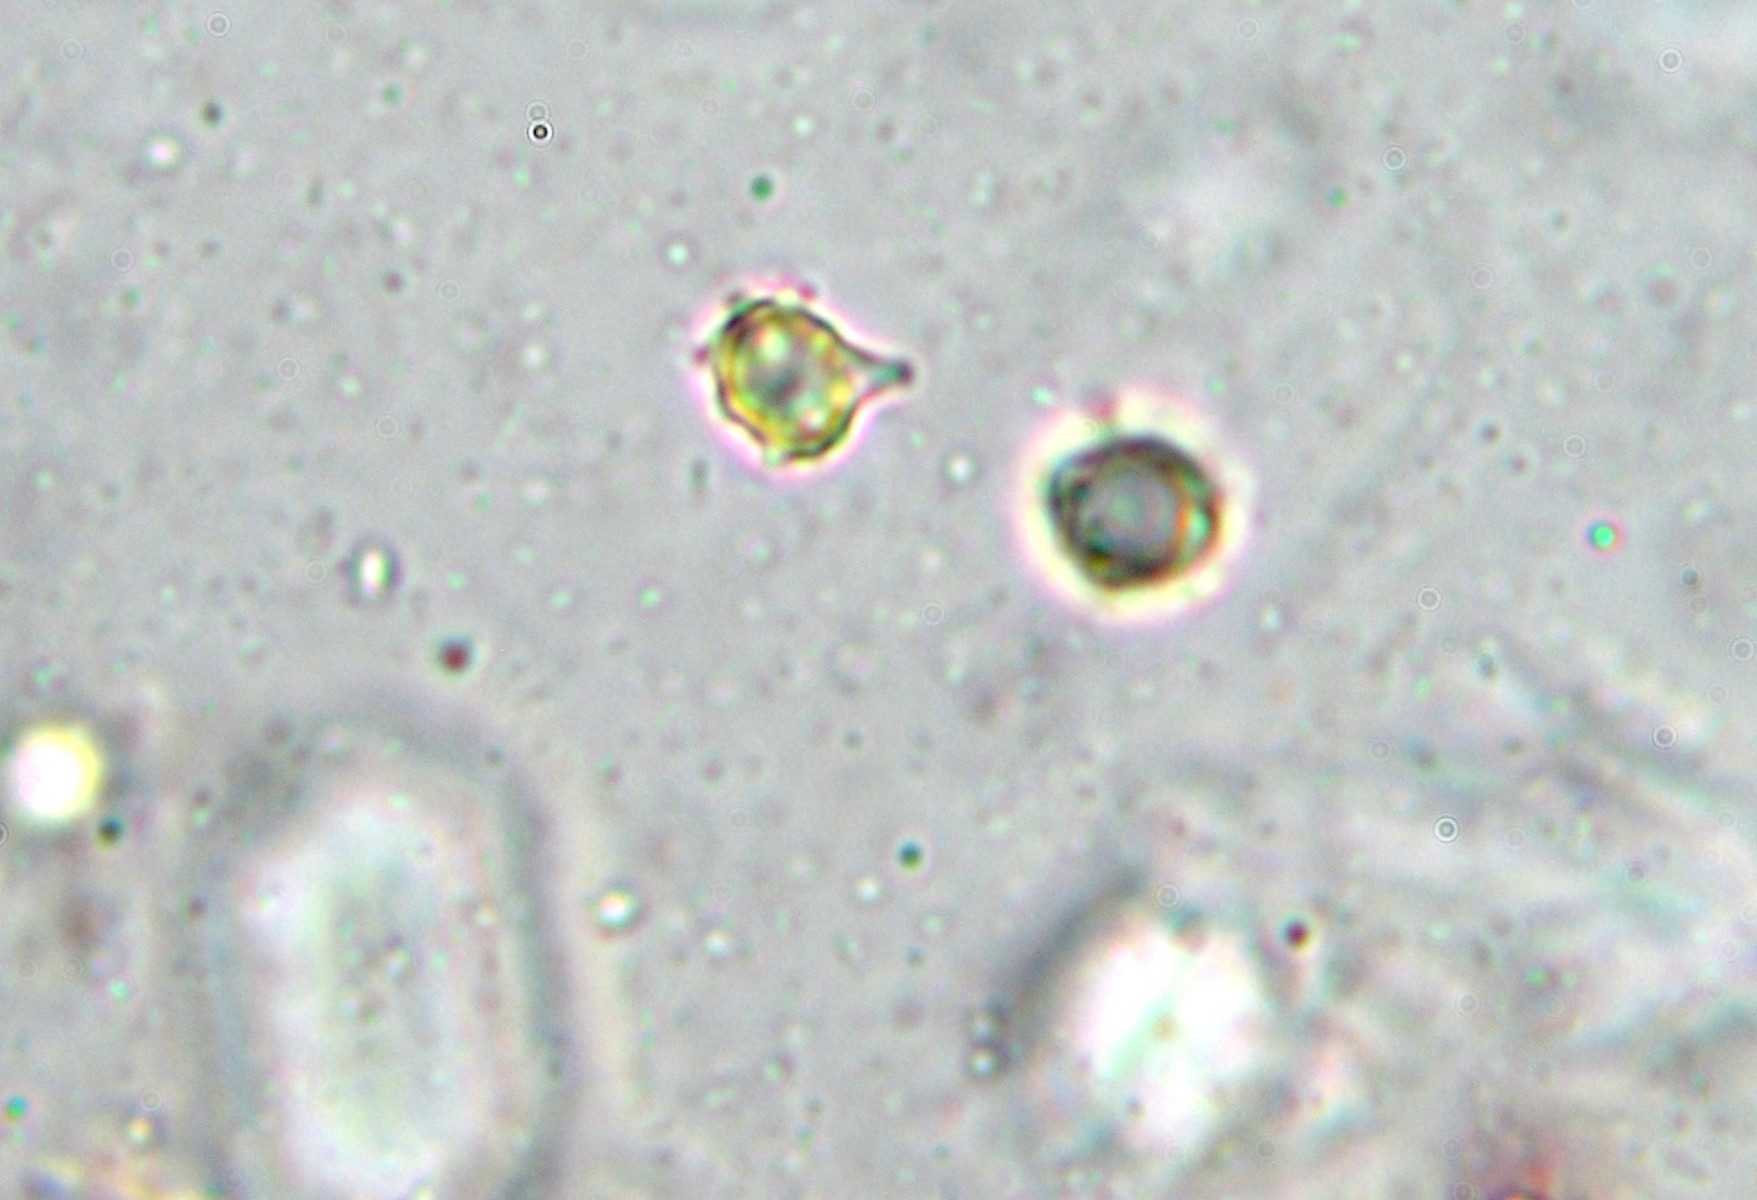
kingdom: Fungi
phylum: Basidiomycota
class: Agaricomycetes
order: Agaricales
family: Clavariaceae
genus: Clavulinopsis
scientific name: Clavulinopsis helvola
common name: orangegul køllesvamp
